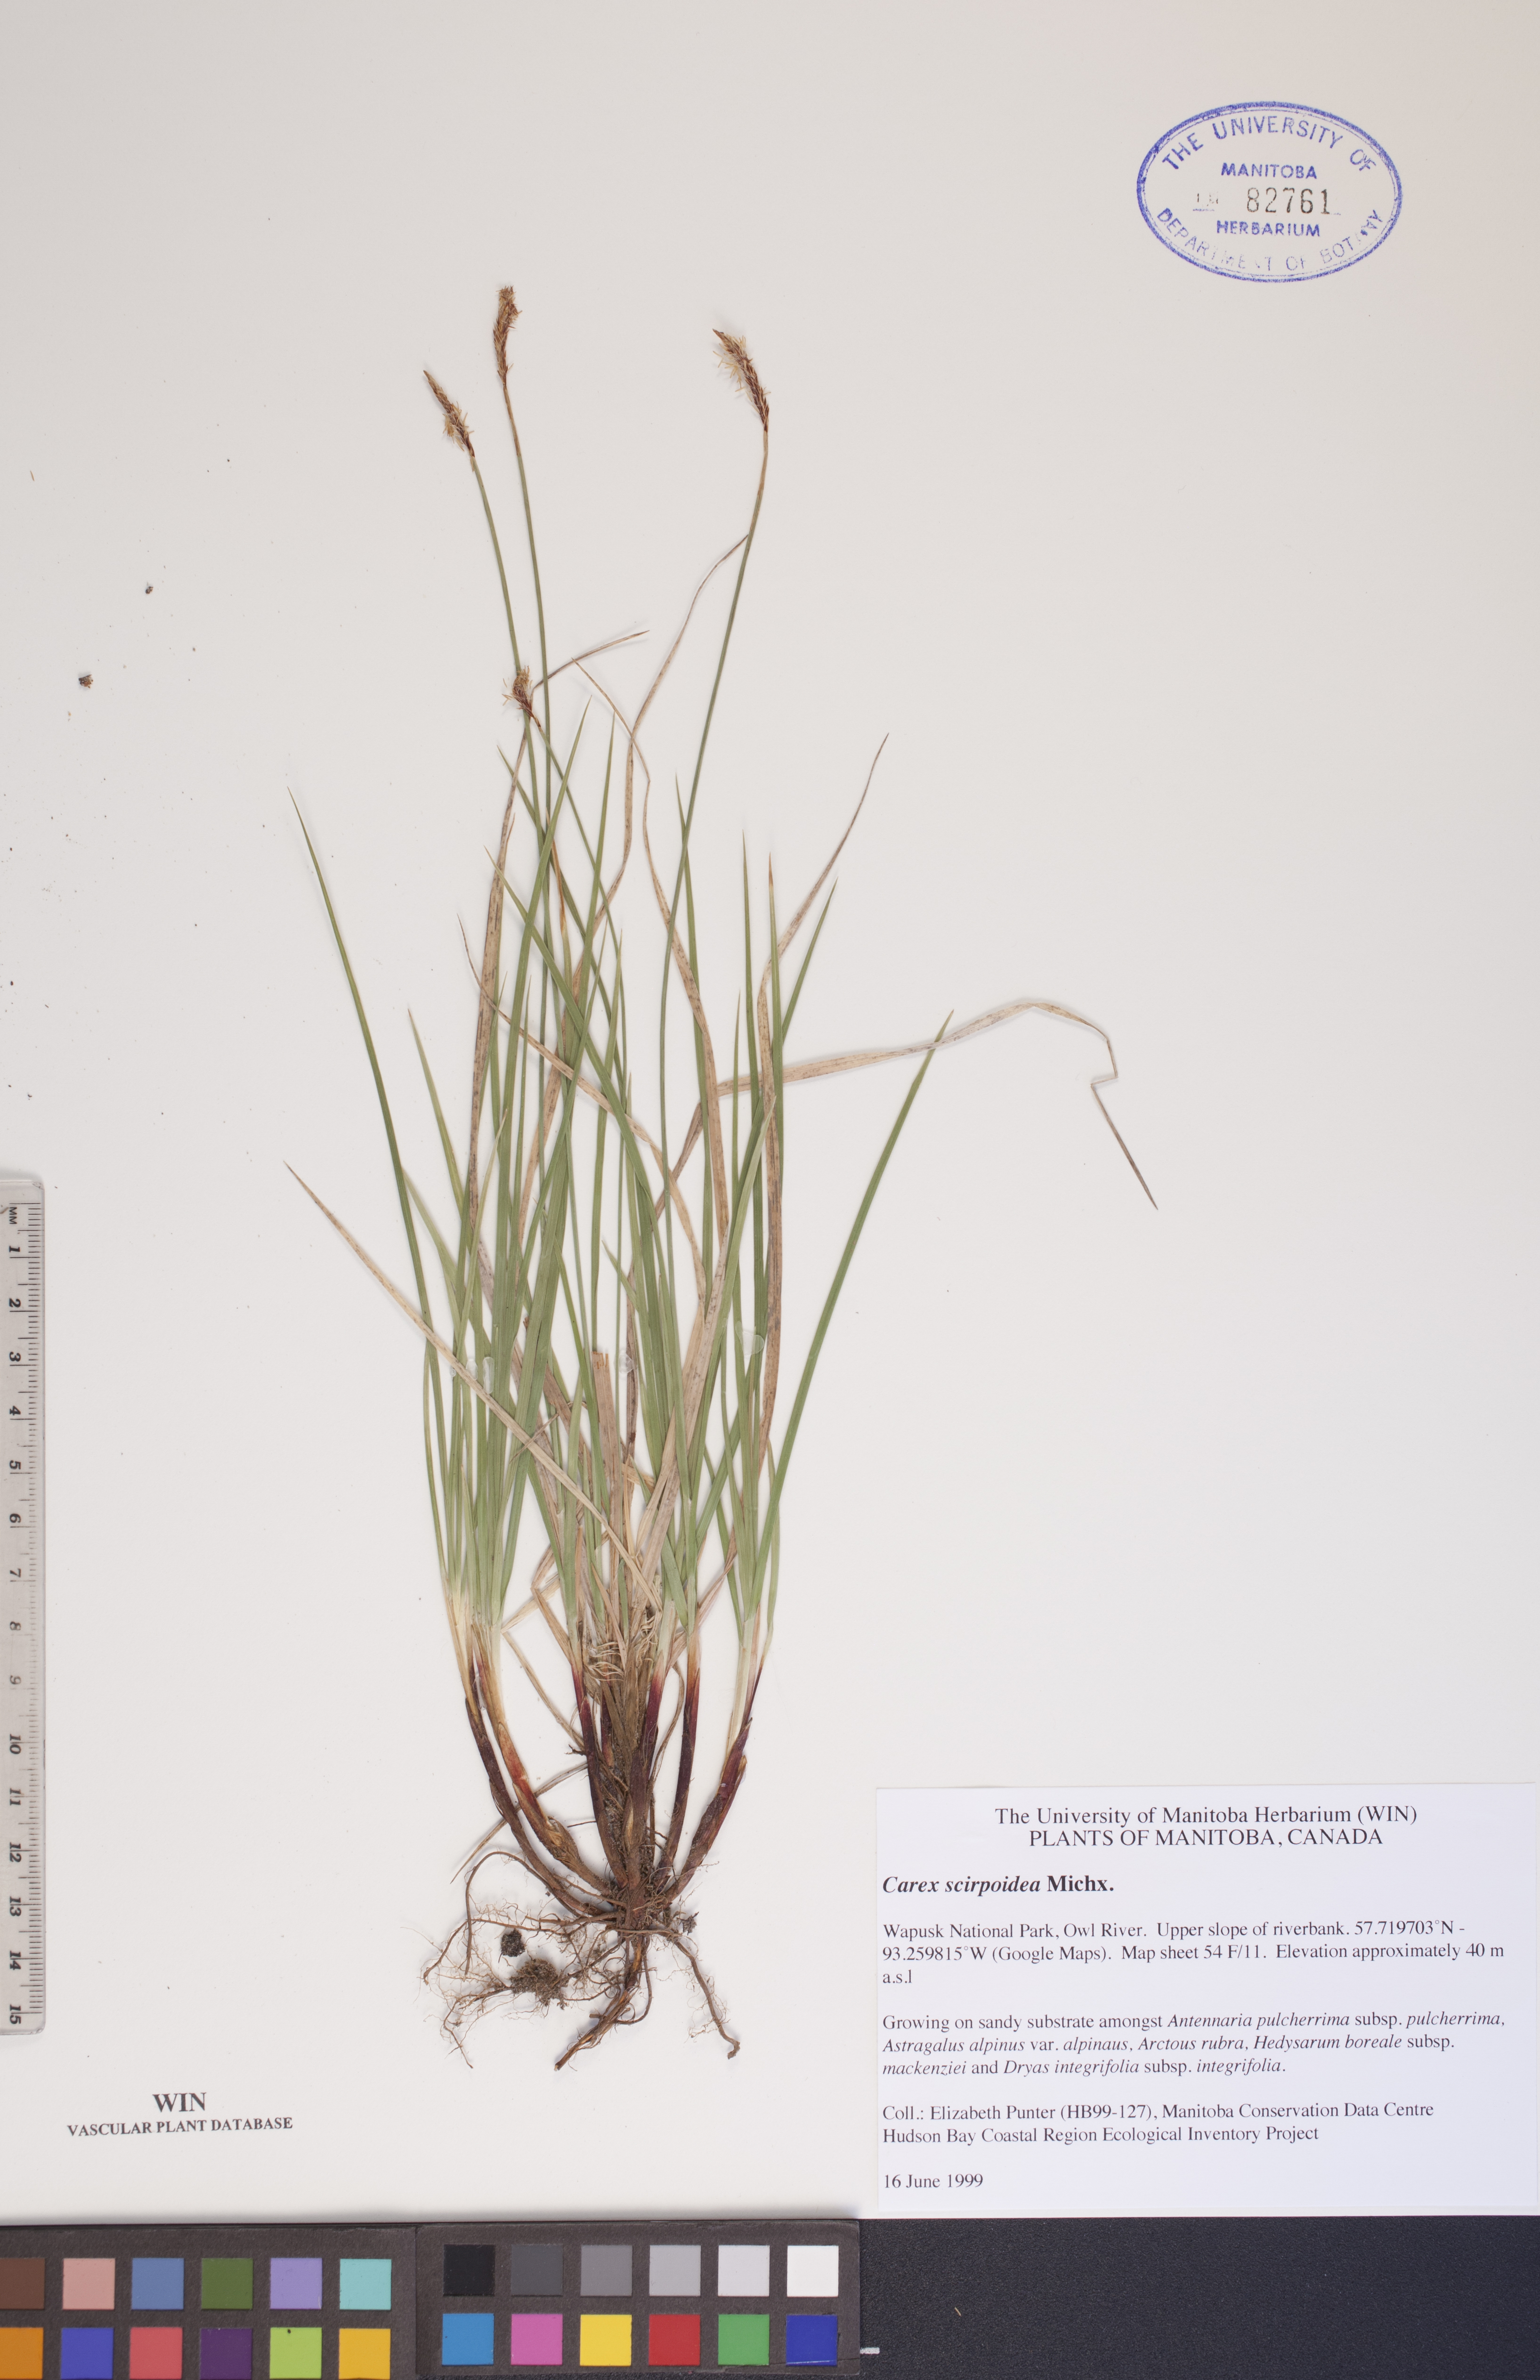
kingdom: Plantae
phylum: Tracheophyta
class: Liliopsida
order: Poales
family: Cyperaceae
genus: Carex
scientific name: Carex scirpoidea
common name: Canada single-spike sedge
